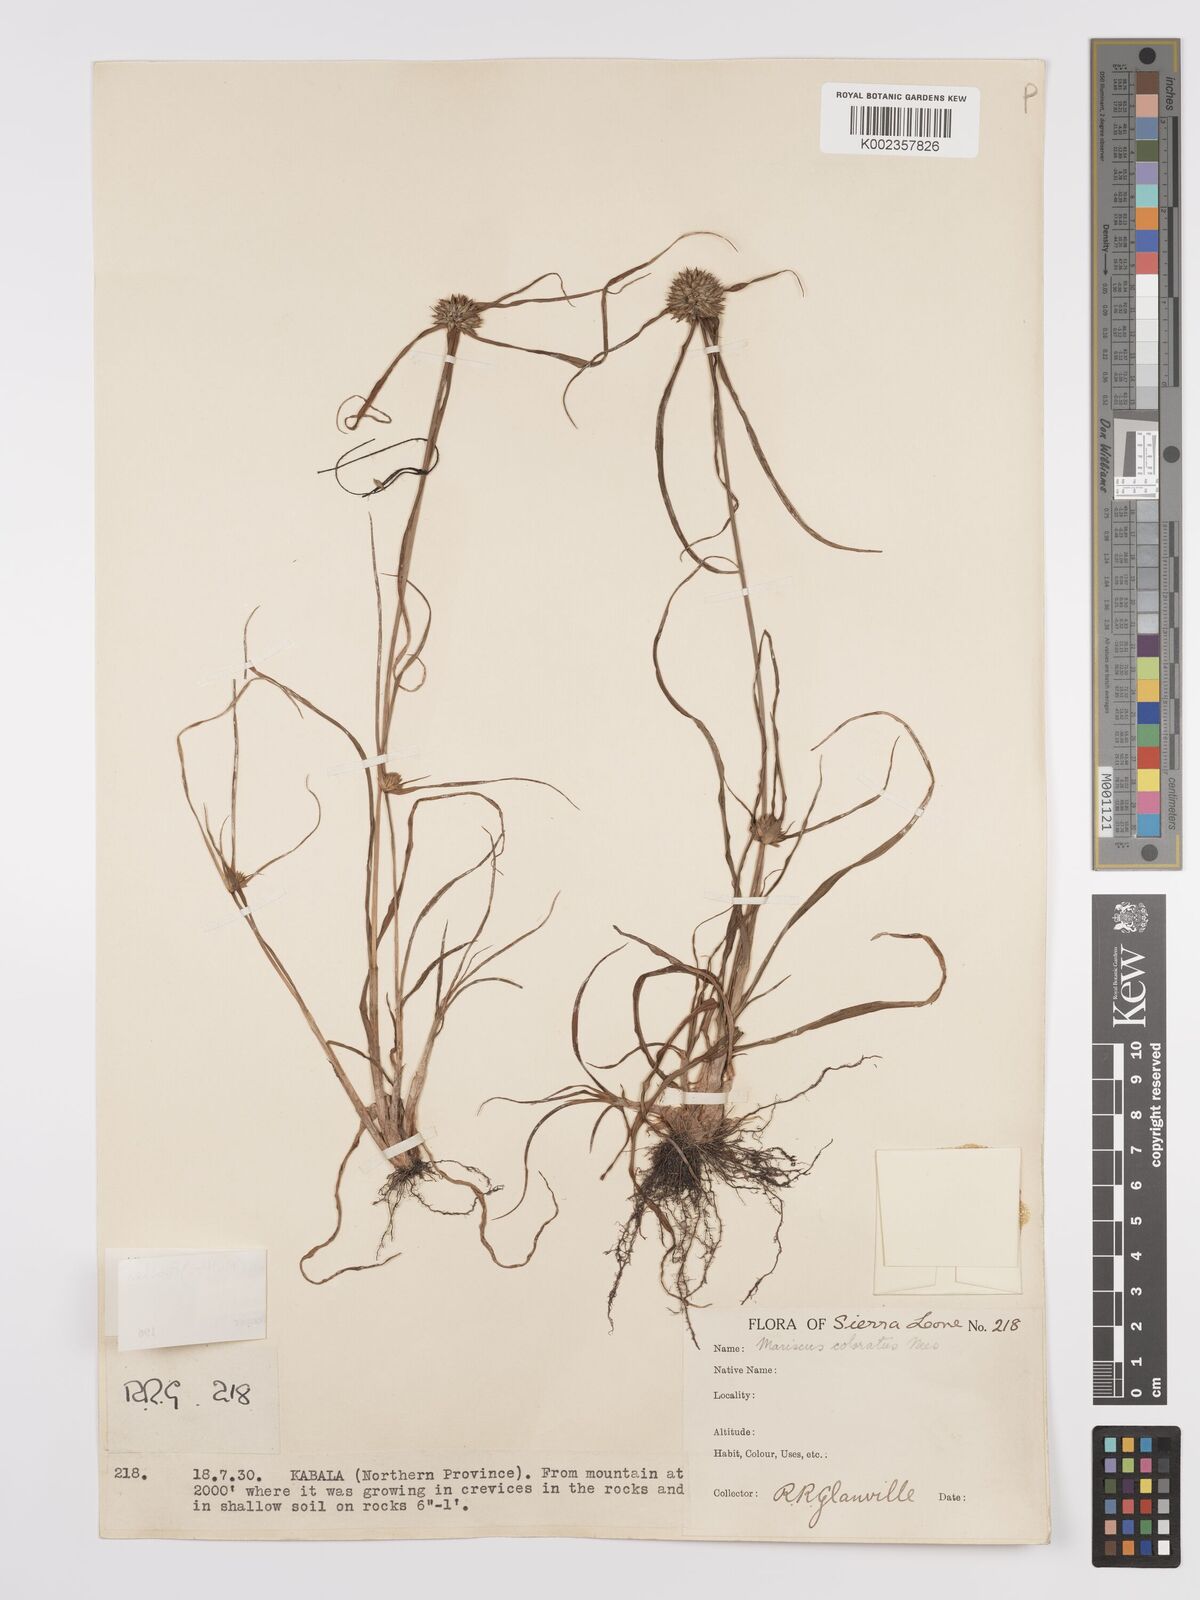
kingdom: Plantae
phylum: Tracheophyta
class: Liliopsida
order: Poales
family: Cyperaceae
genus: Cyperus
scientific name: Cyperus dubius
